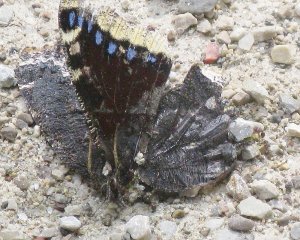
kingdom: Animalia
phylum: Arthropoda
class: Insecta
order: Lepidoptera
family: Nymphalidae
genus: Nymphalis
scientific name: Nymphalis antiopa
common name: Mourning Cloak
